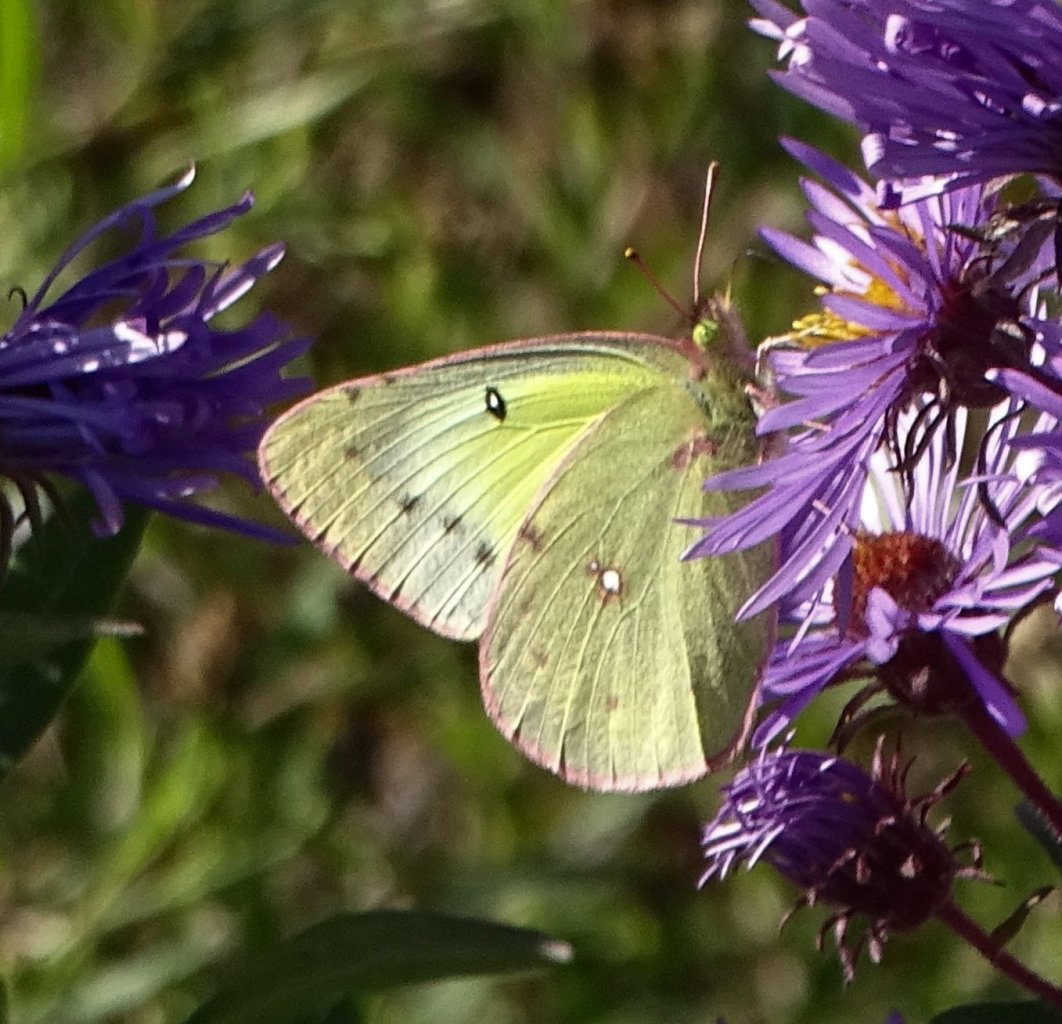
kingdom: Animalia
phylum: Arthropoda
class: Insecta
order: Lepidoptera
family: Pieridae
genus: Colias
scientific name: Colias
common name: Clouded Yellows
